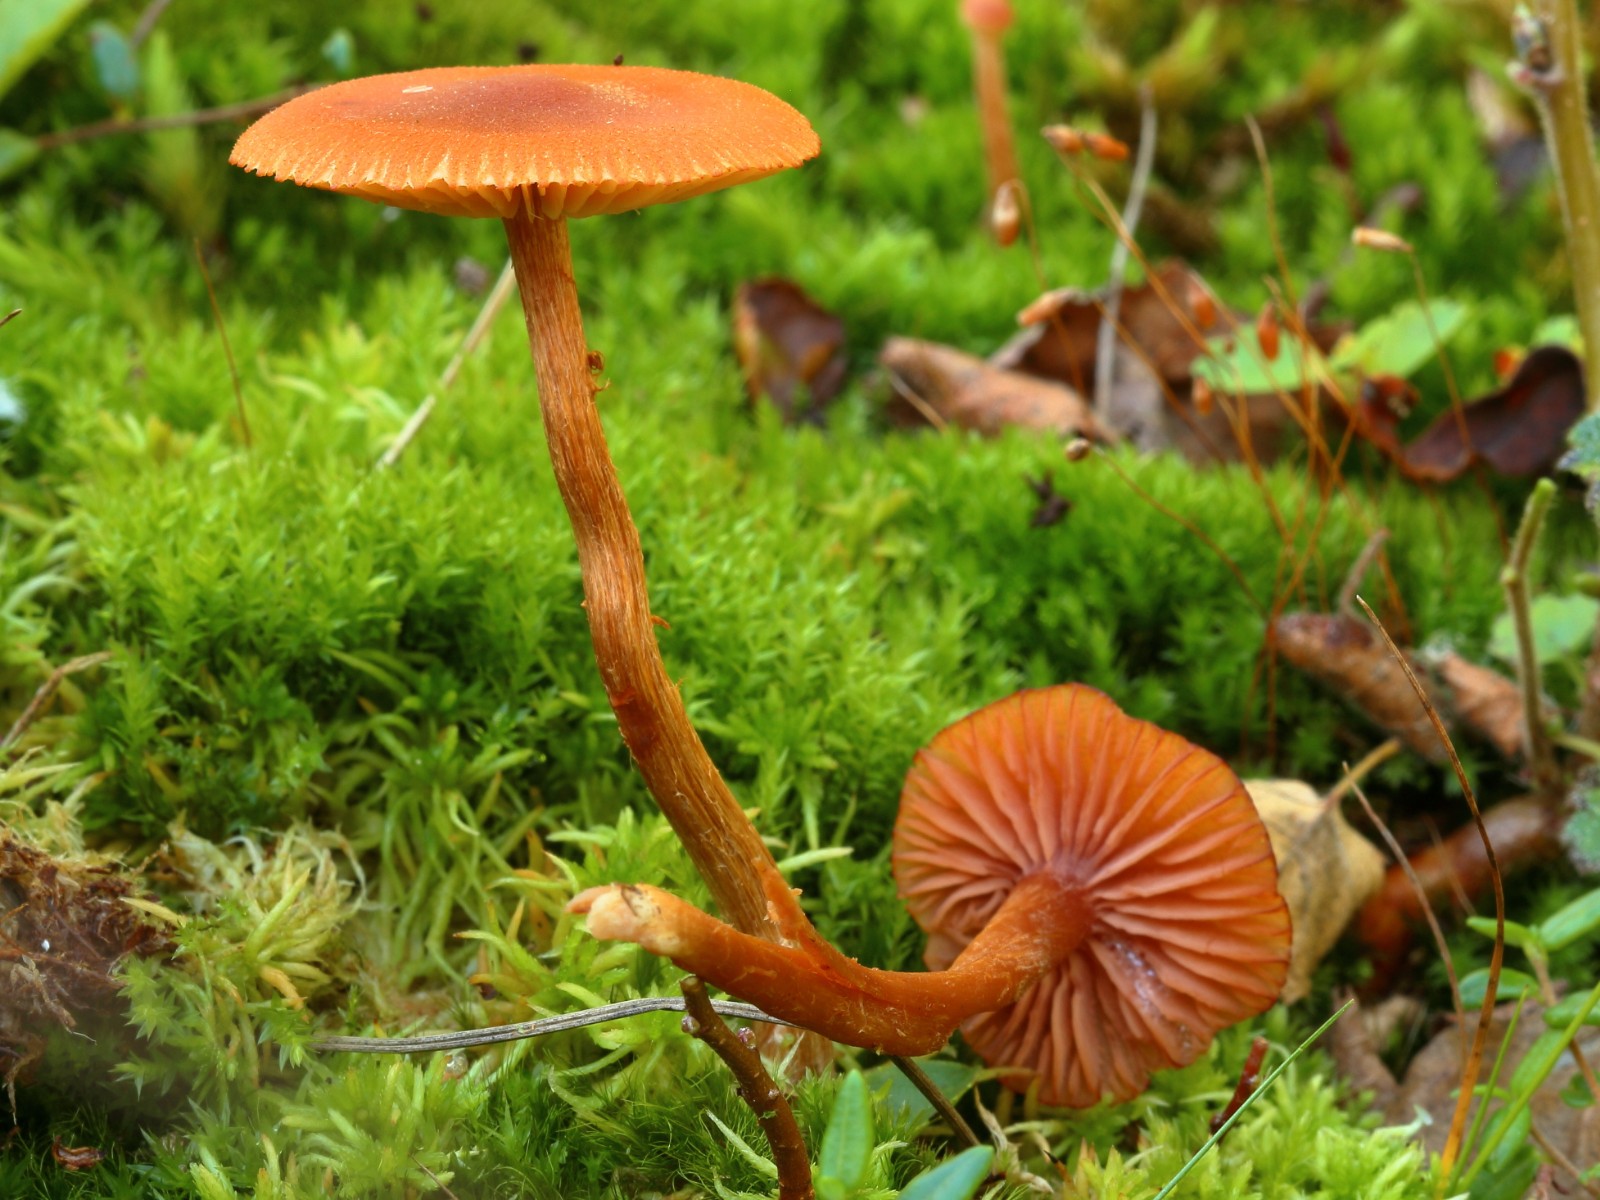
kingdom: Fungi
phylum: Basidiomycota
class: Agaricomycetes
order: Agaricales
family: Hydnangiaceae
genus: Laccaria
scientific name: Laccaria
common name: ametysthat
